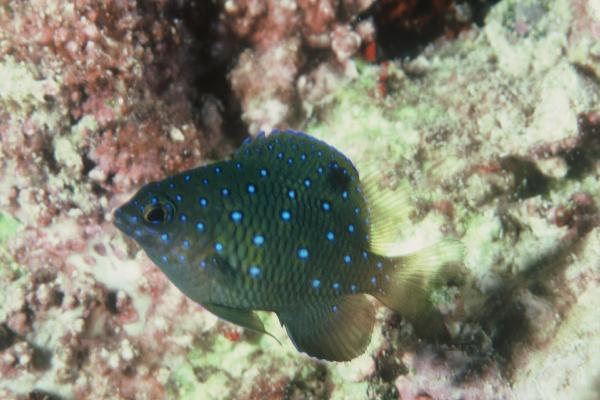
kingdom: Animalia
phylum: Chordata
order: Perciformes
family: Pomacentridae
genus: Plectroglyphidodon
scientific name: Plectroglyphidodon lacrymatus
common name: Jewel damsel
